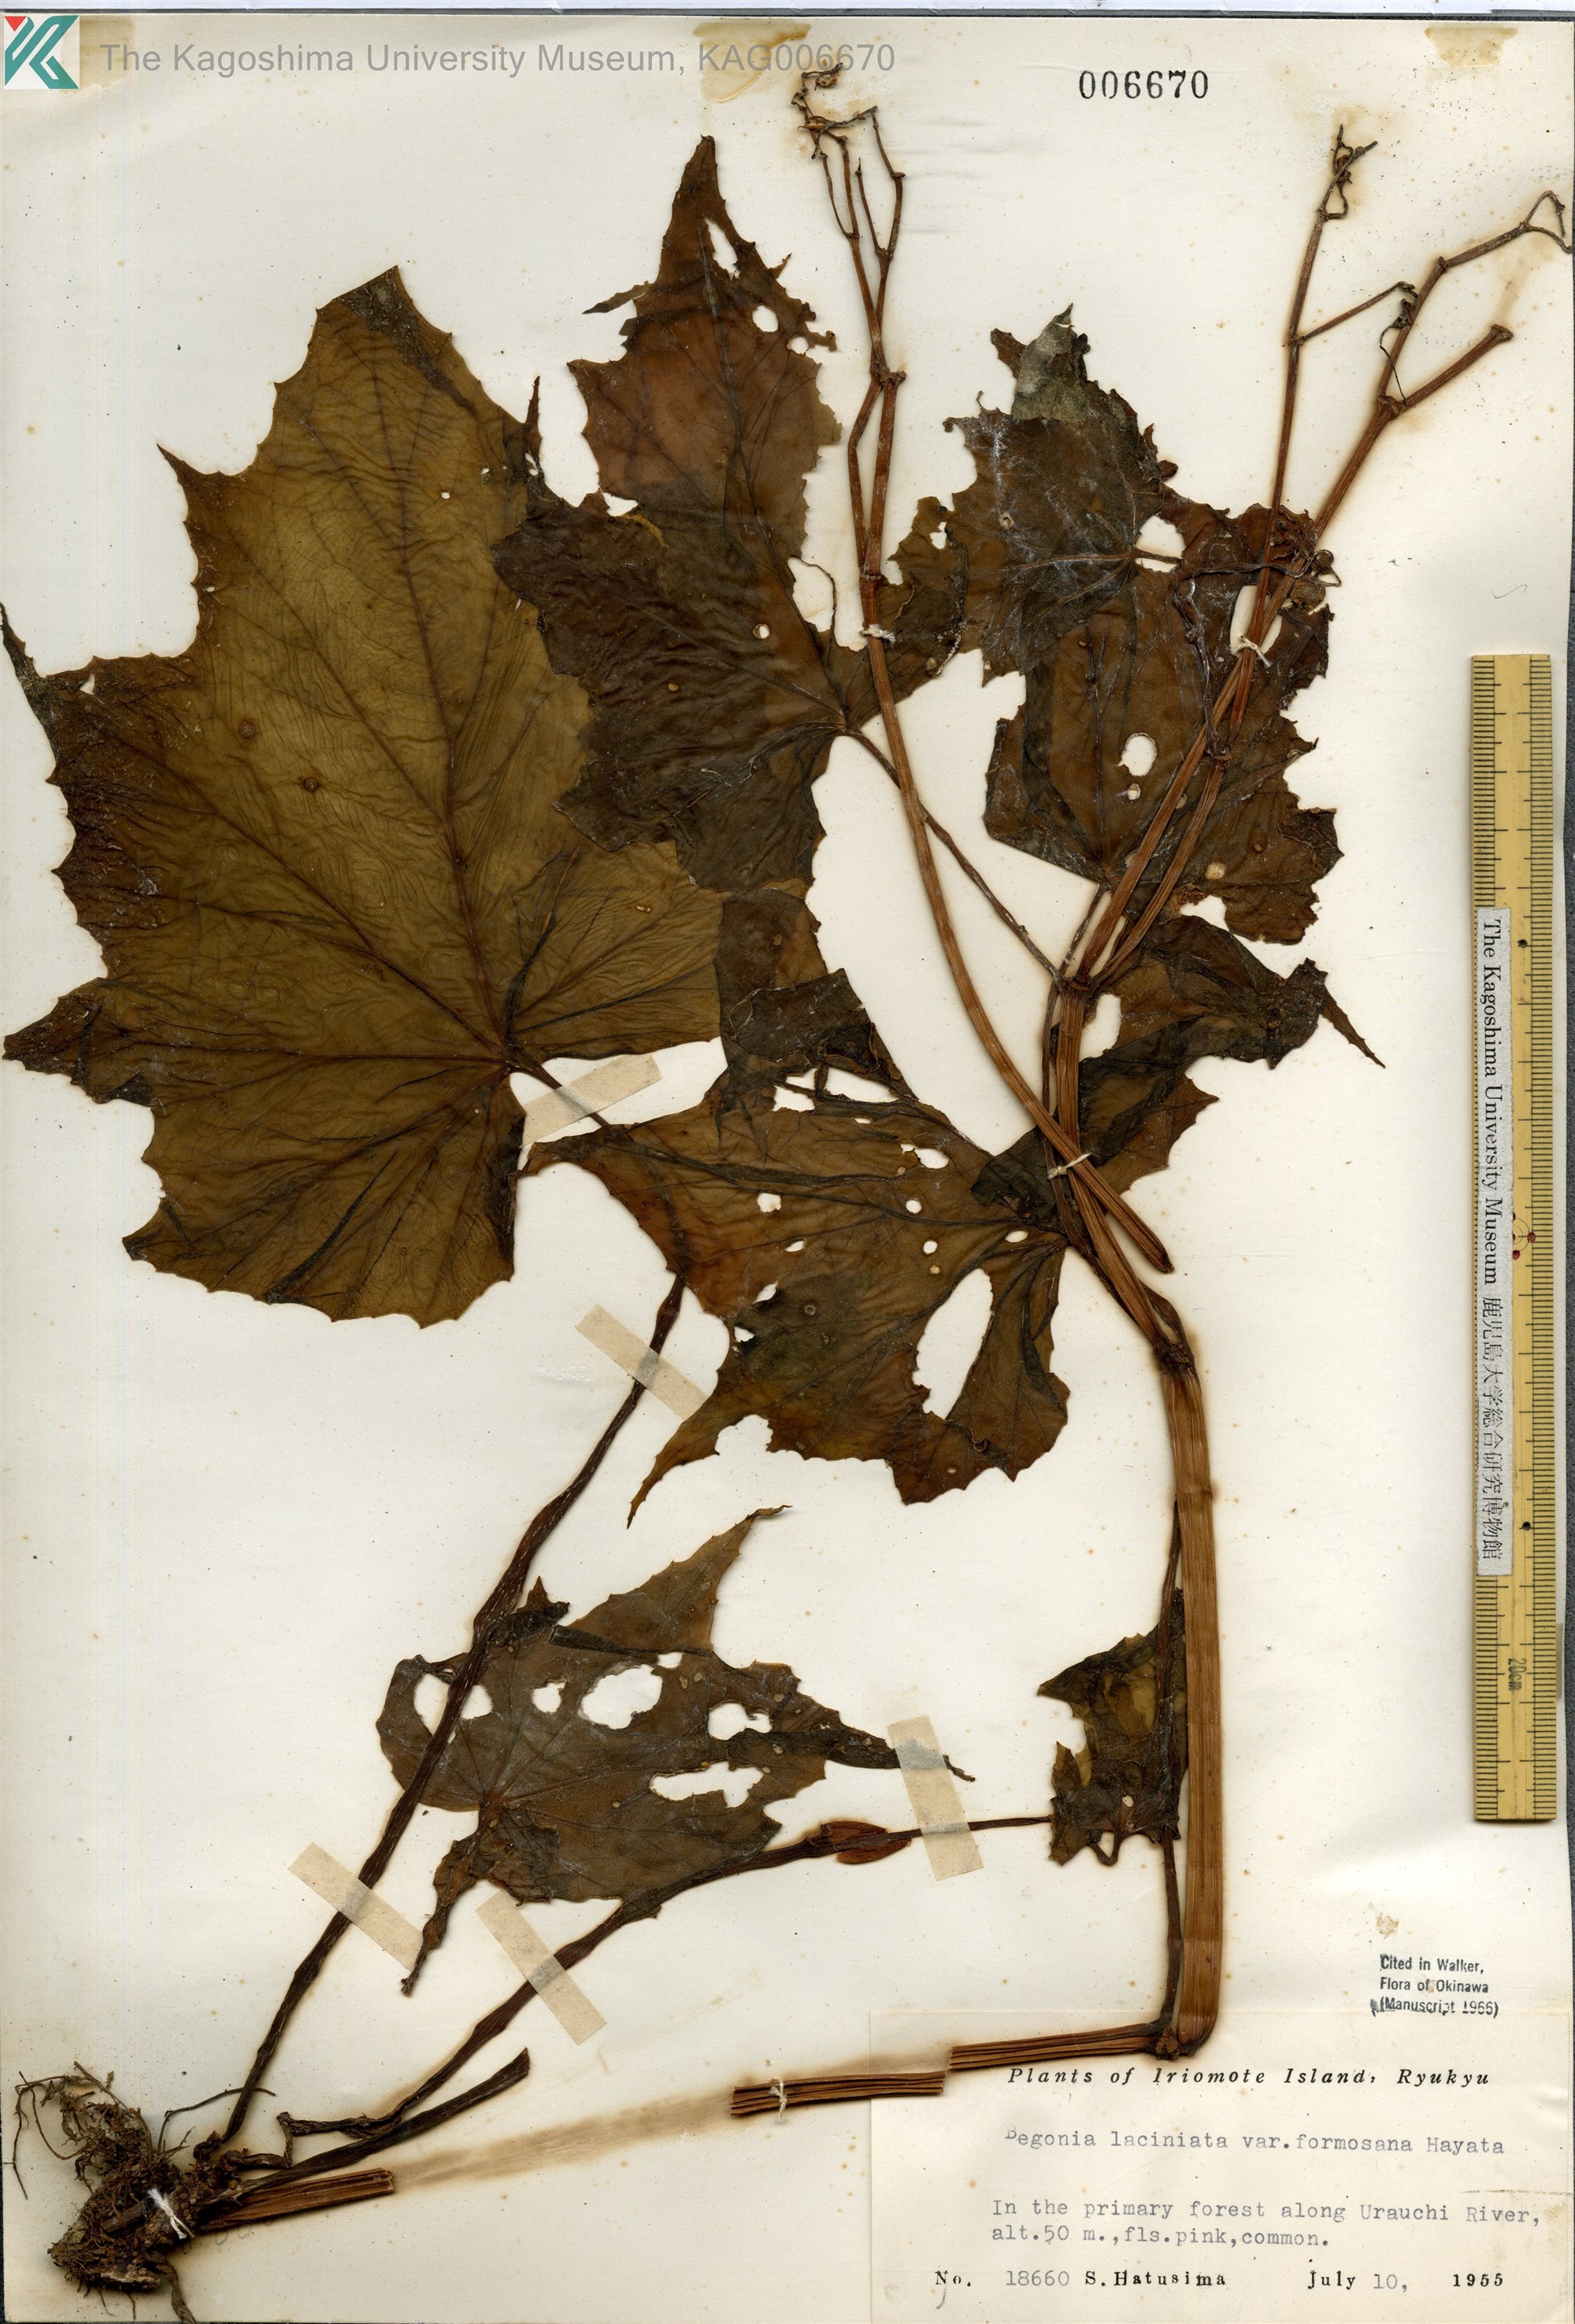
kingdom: Plantae
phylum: Tracheophyta
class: Magnoliopsida
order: Cucurbitales
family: Begoniaceae
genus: Begonia
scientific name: Begonia palmata
